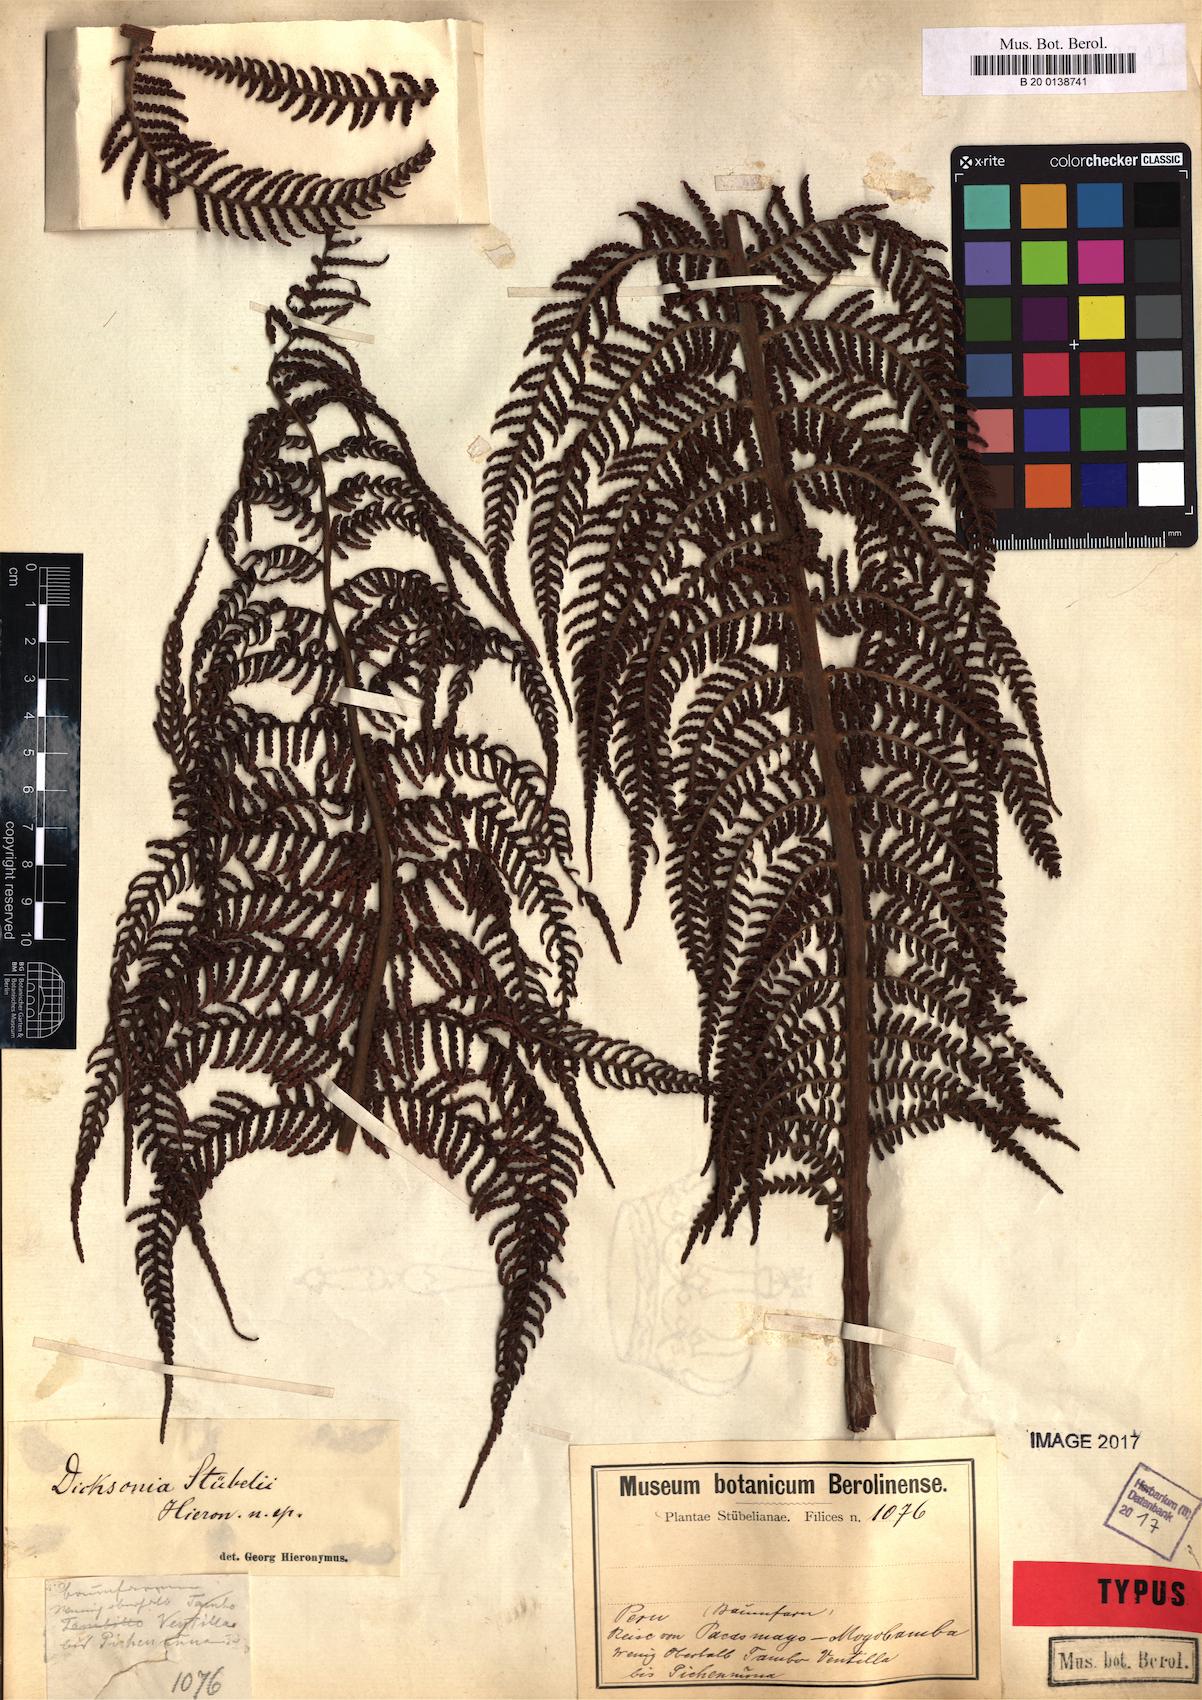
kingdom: Plantae
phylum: Tracheophyta
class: Polypodiopsida
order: Cyatheales
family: Dicksoniaceae
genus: Dicksonia
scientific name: Dicksonia stuebelii
